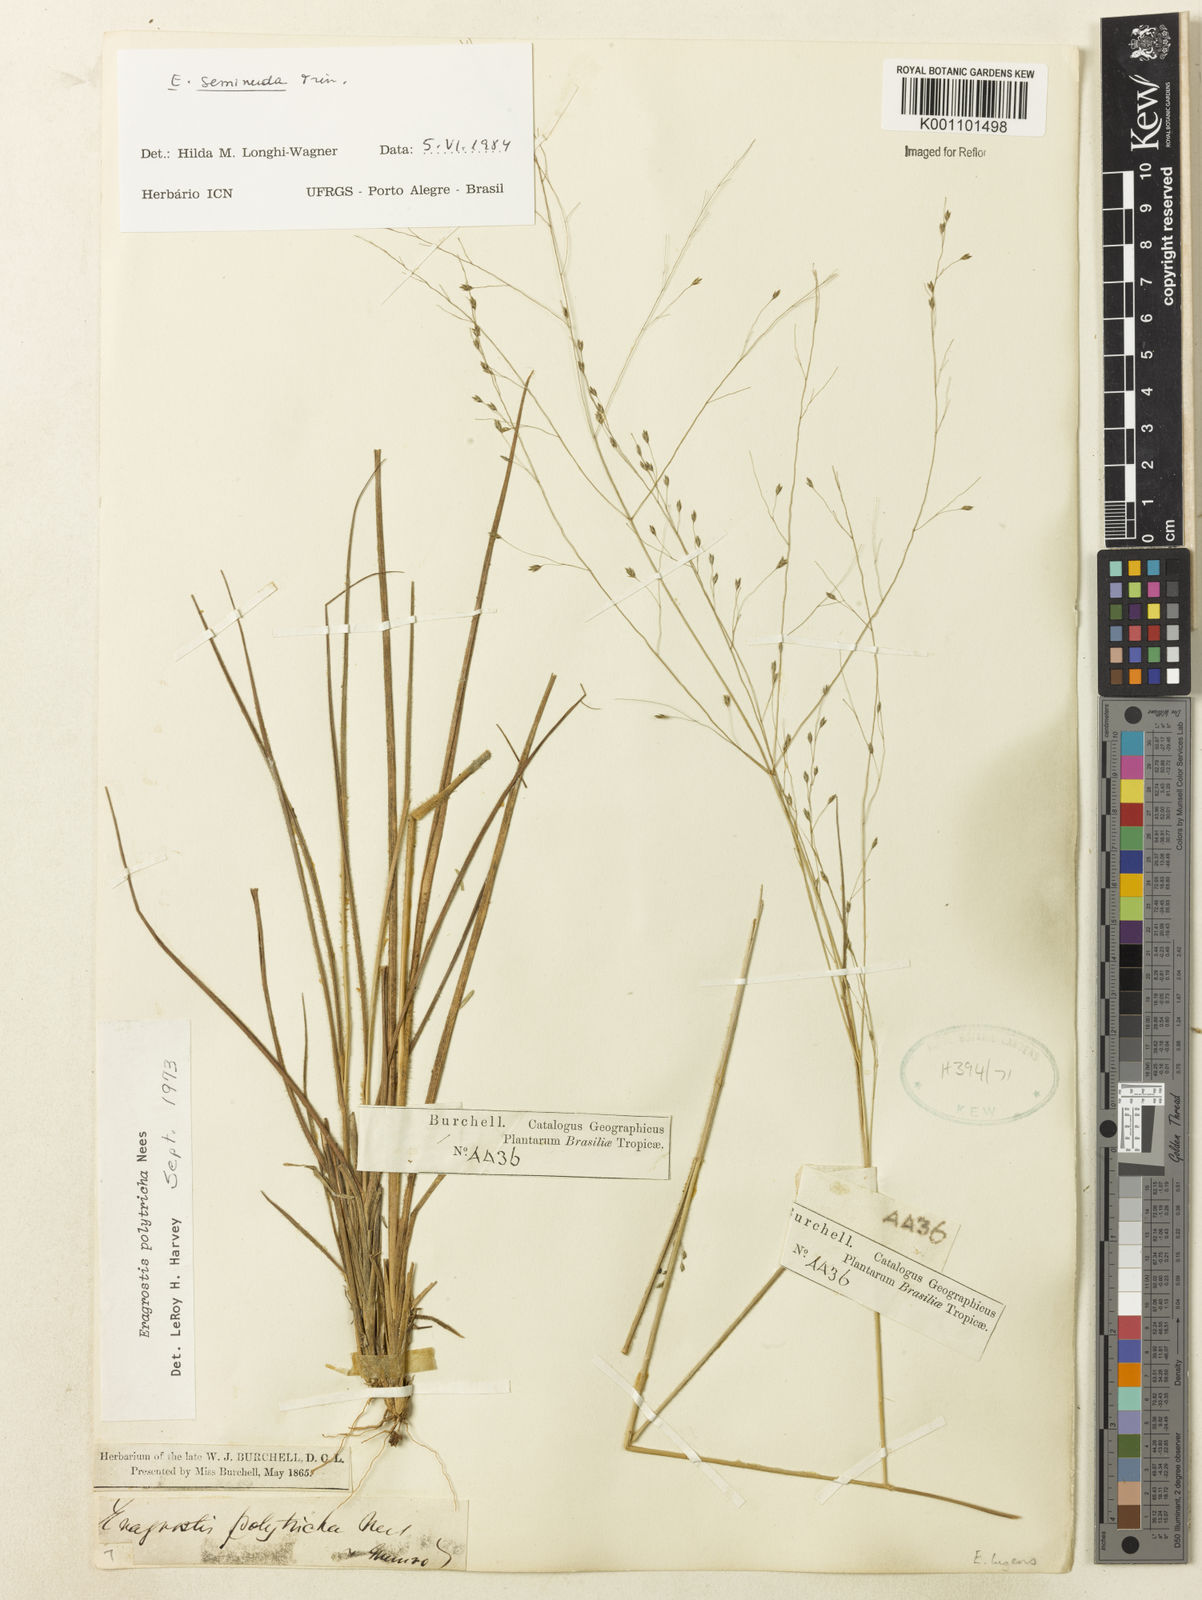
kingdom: Plantae
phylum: Tracheophyta
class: Liliopsida
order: Poales
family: Poaceae
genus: Eragrostis
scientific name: Eragrostis seminuda
